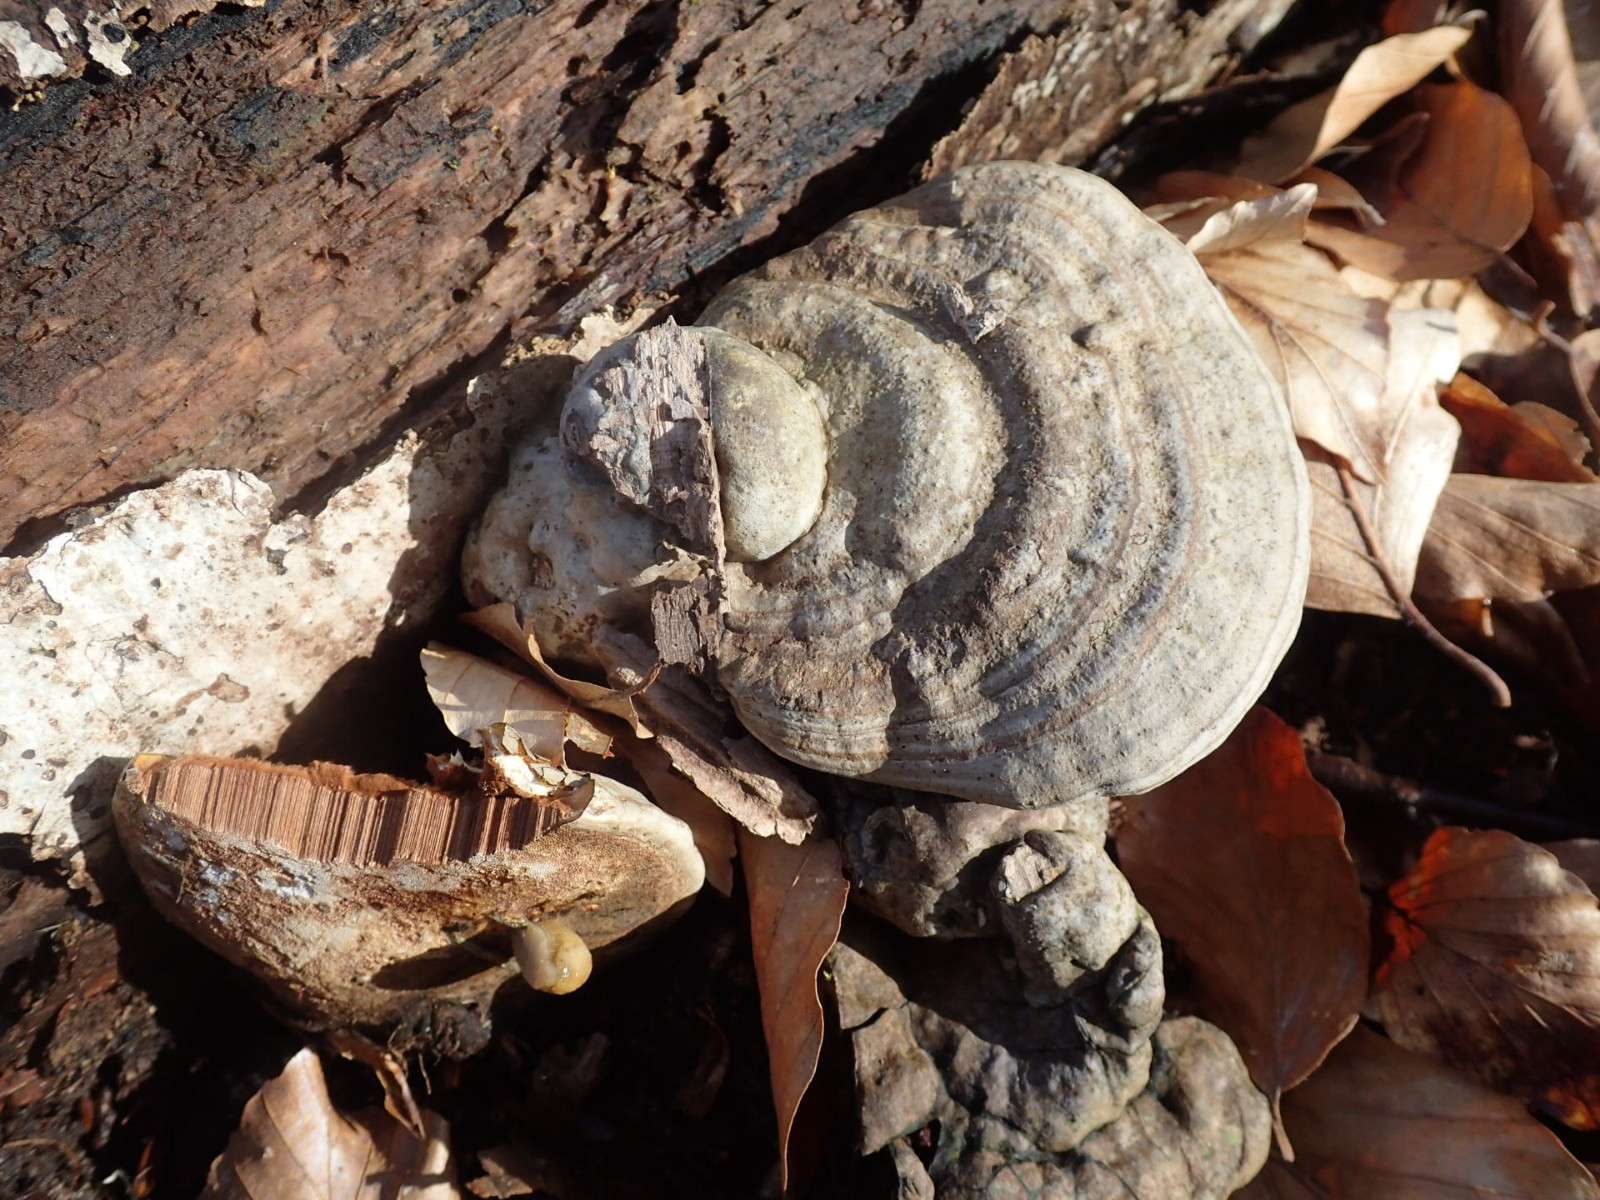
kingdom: Fungi
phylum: Basidiomycota
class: Agaricomycetes
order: Polyporales
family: Polyporaceae
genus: Fomes
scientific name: Fomes fomentarius
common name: tøndersvamp
